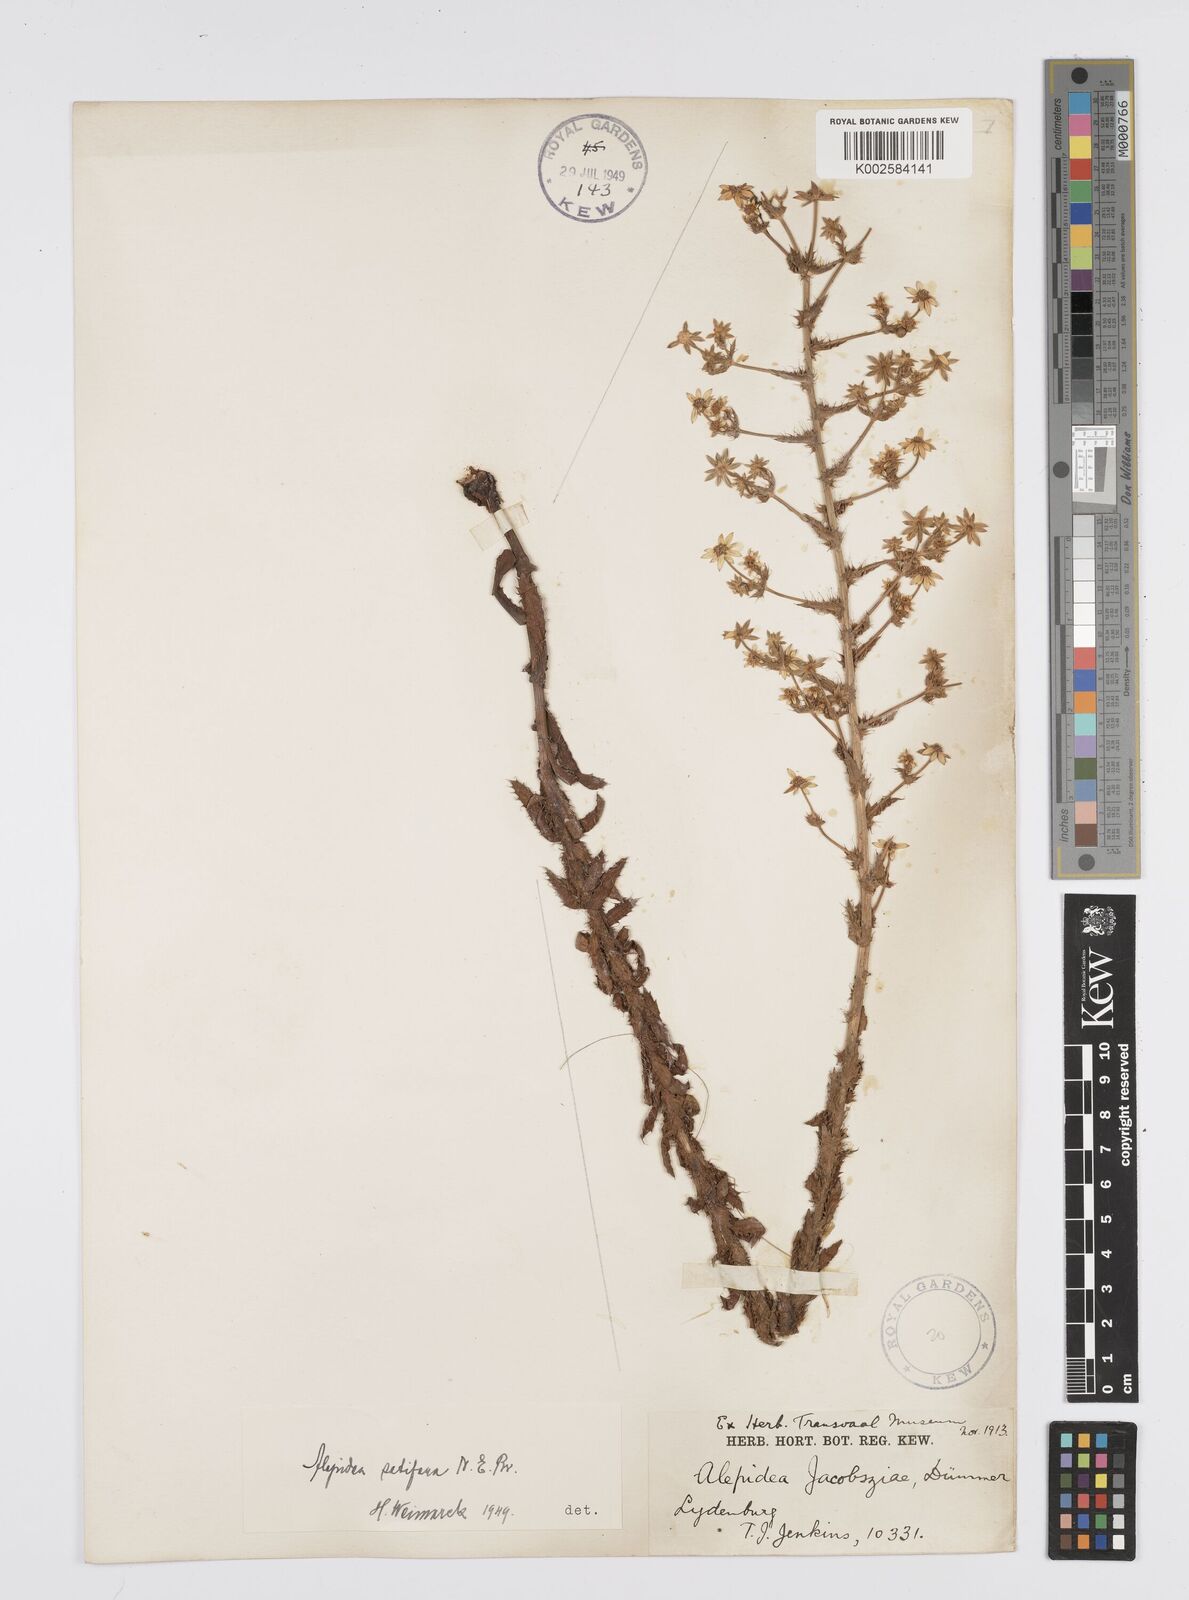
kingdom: Plantae
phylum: Tracheophyta
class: Magnoliopsida
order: Apiales
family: Apiaceae
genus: Alepidea
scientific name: Alepidea setifera
